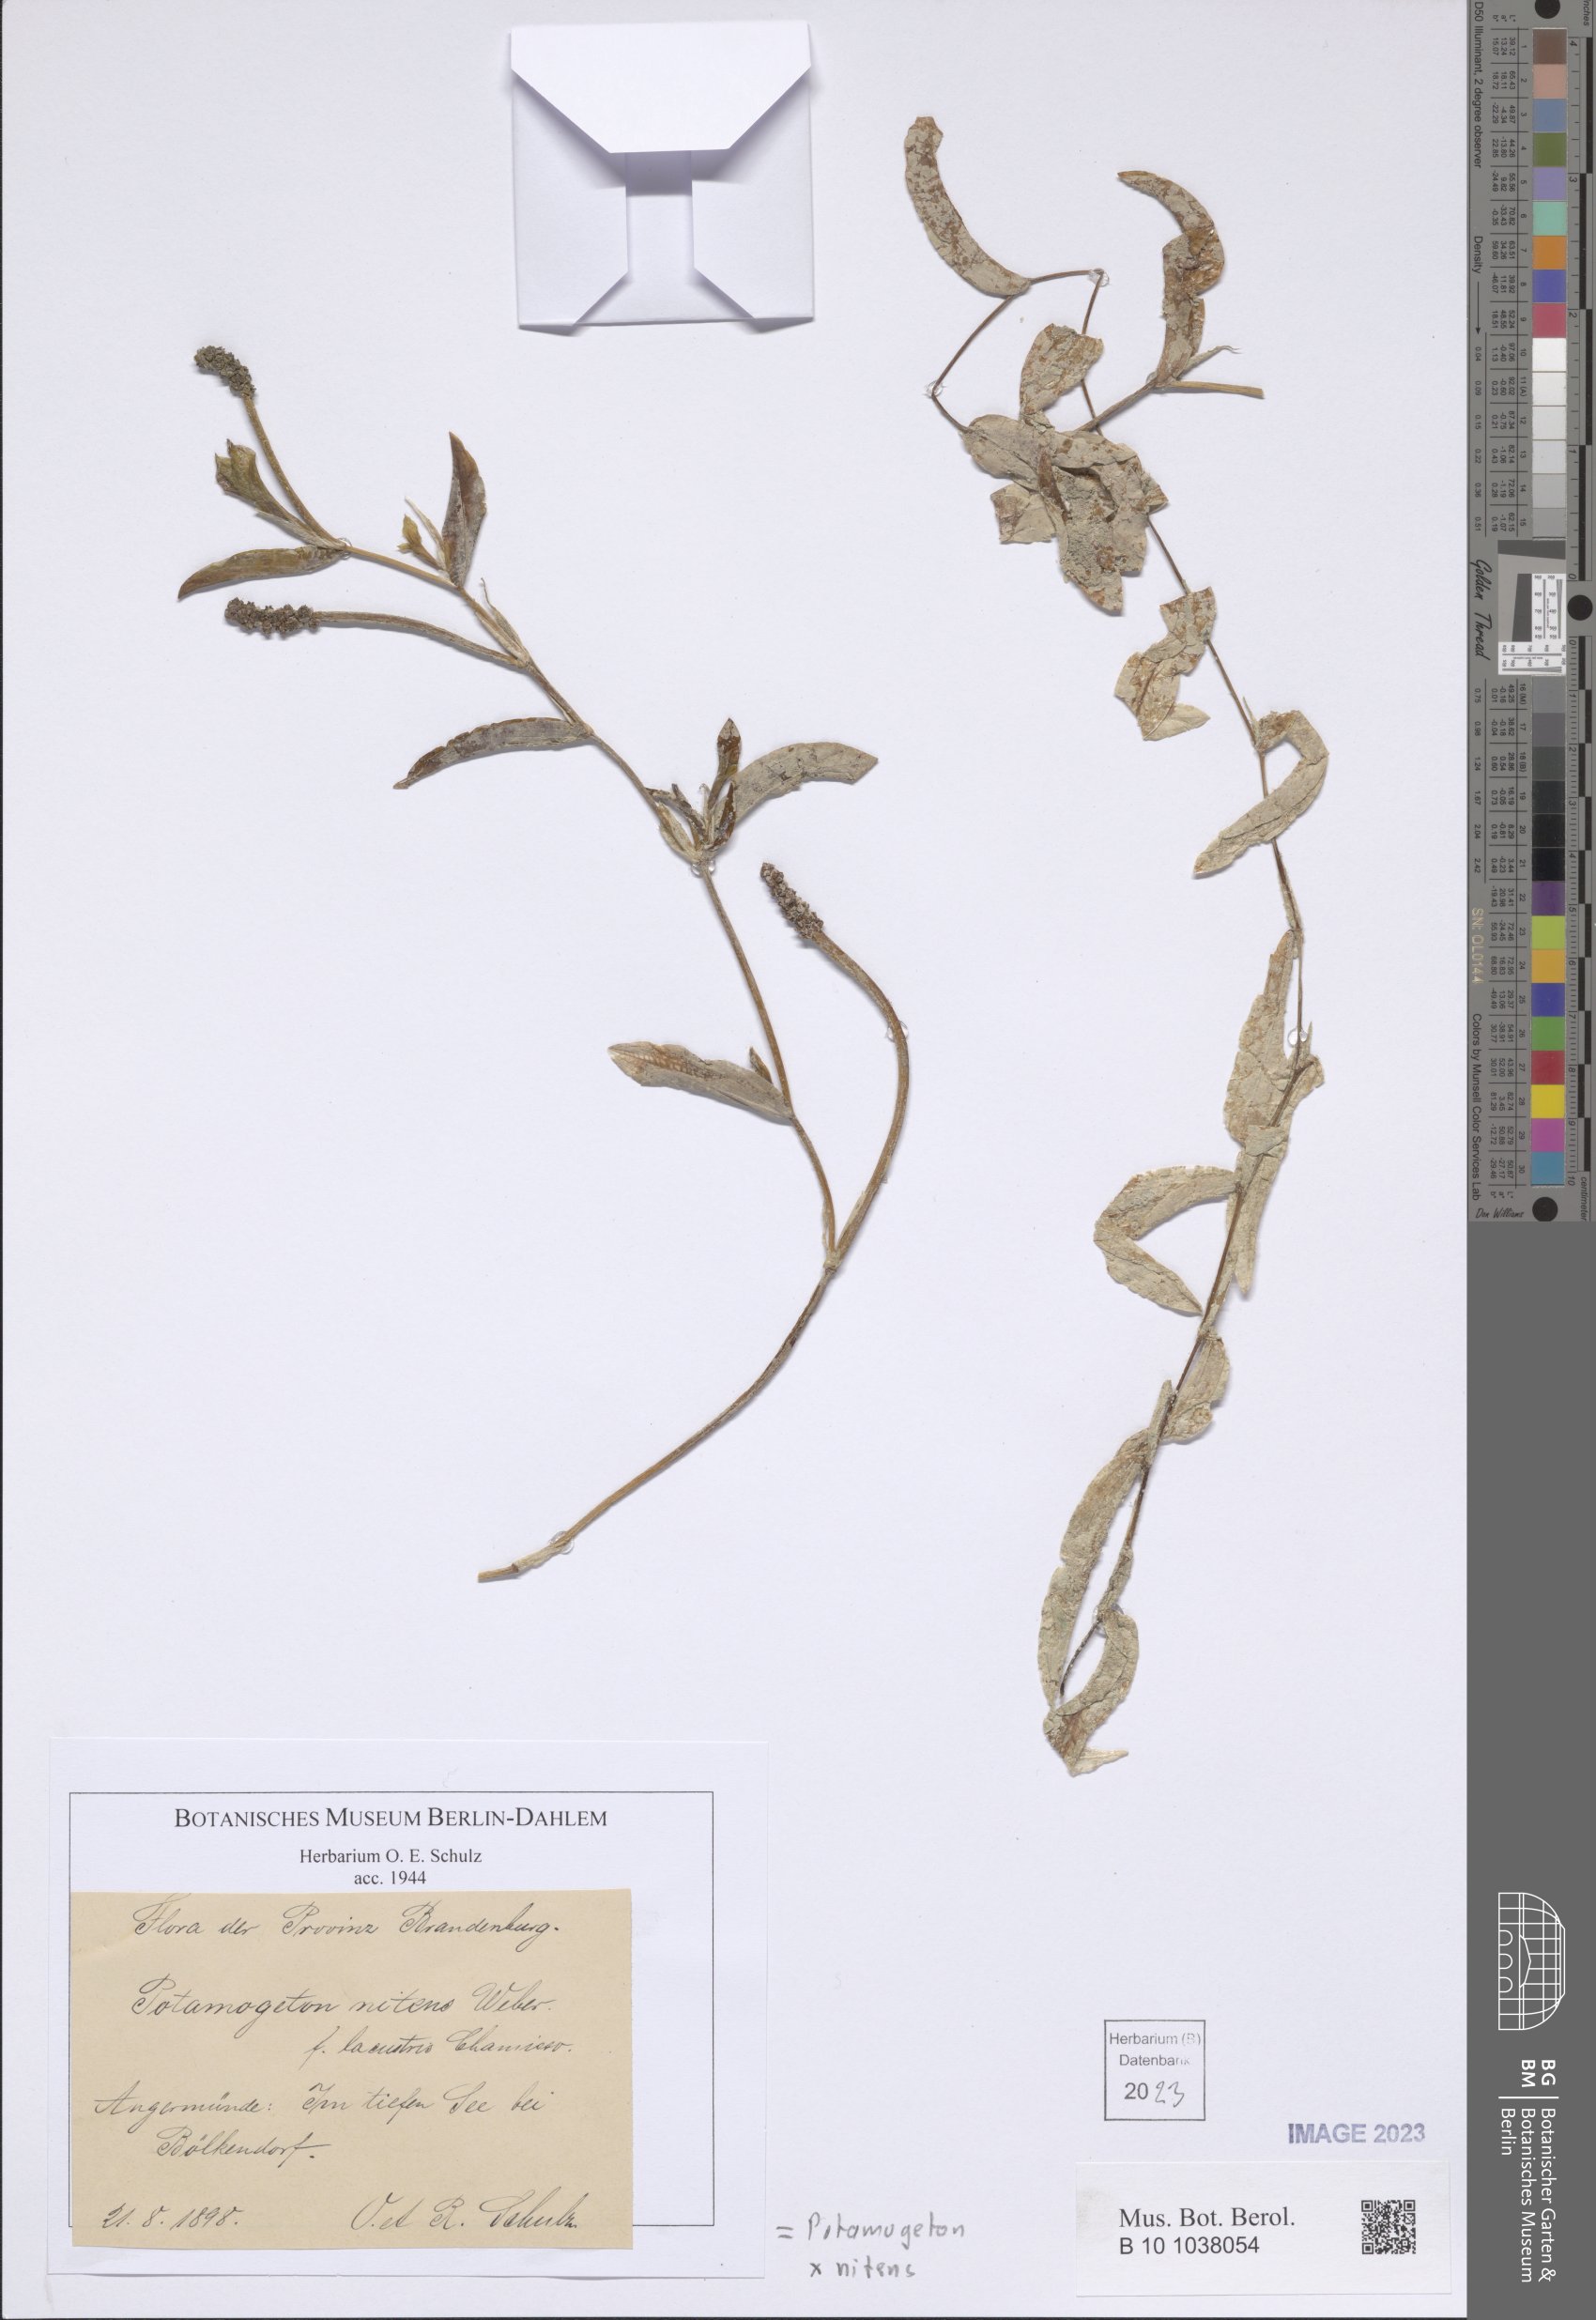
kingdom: Plantae
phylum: Tracheophyta
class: Liliopsida
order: Alismatales
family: Potamogetonaceae
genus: Potamogeton
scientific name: Potamogeton lucens
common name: Shining pondweed
